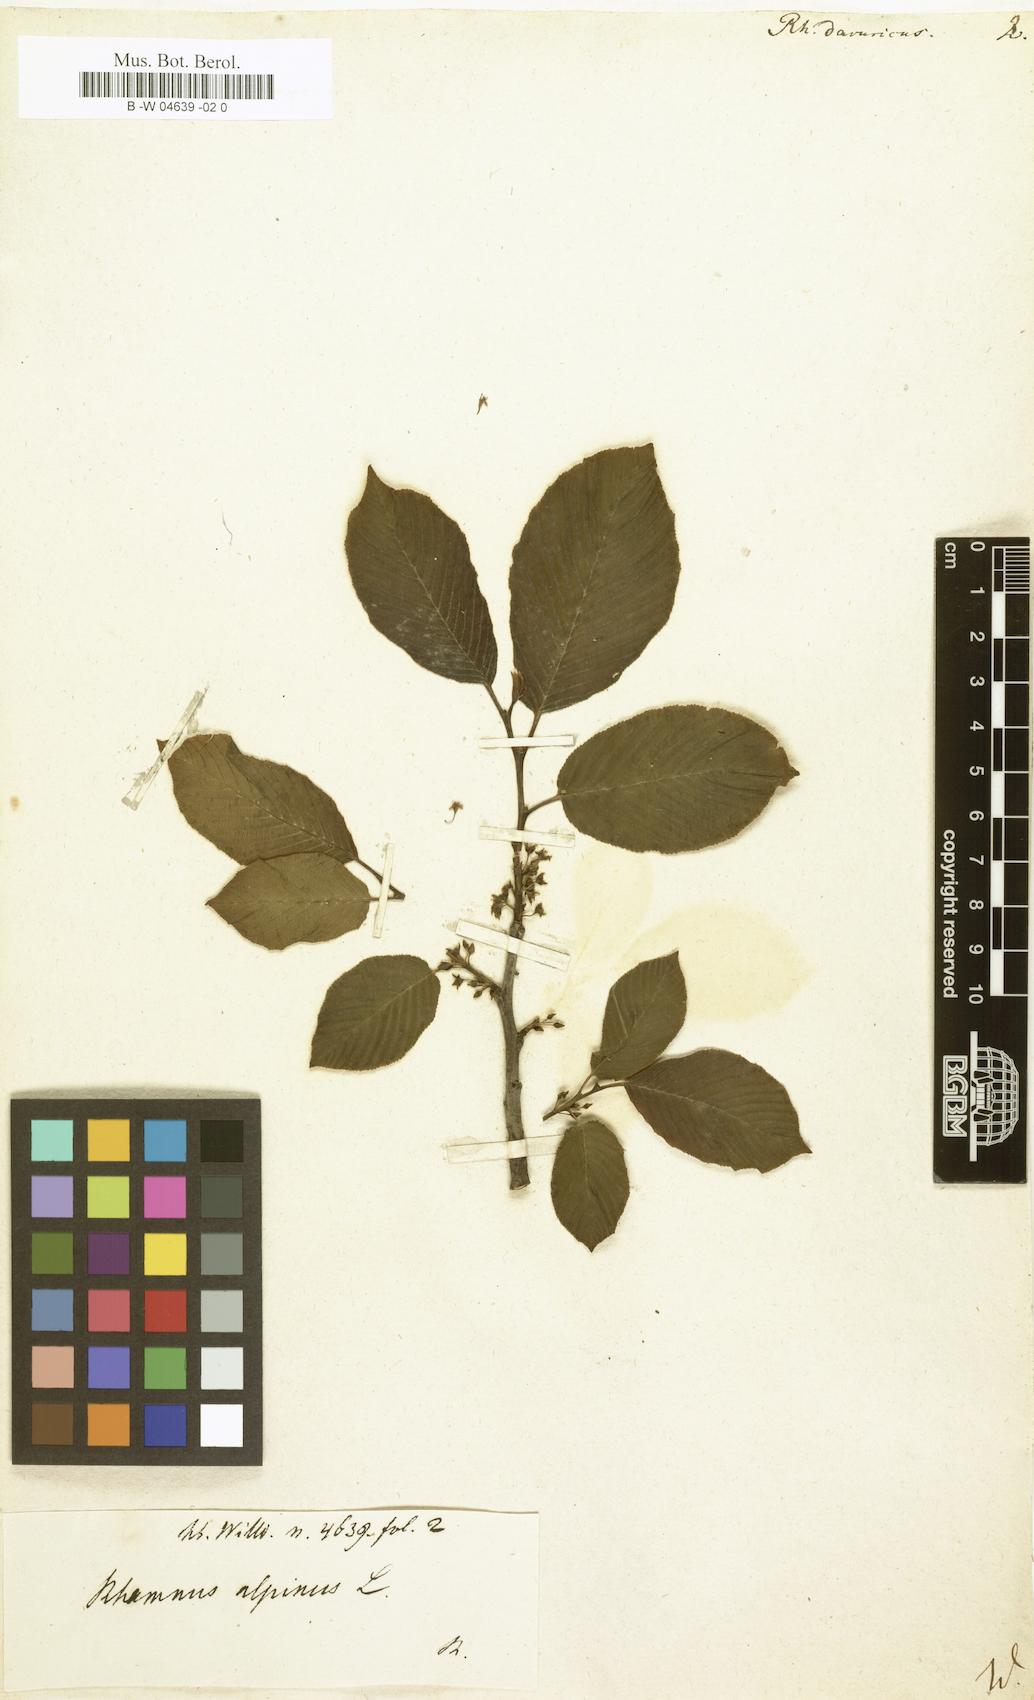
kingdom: Plantae
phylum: Tracheophyta
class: Magnoliopsida
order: Rosales
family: Rhamnaceae
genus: Rhamnus
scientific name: Rhamnus davuricus
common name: Dahurian buckthorn
